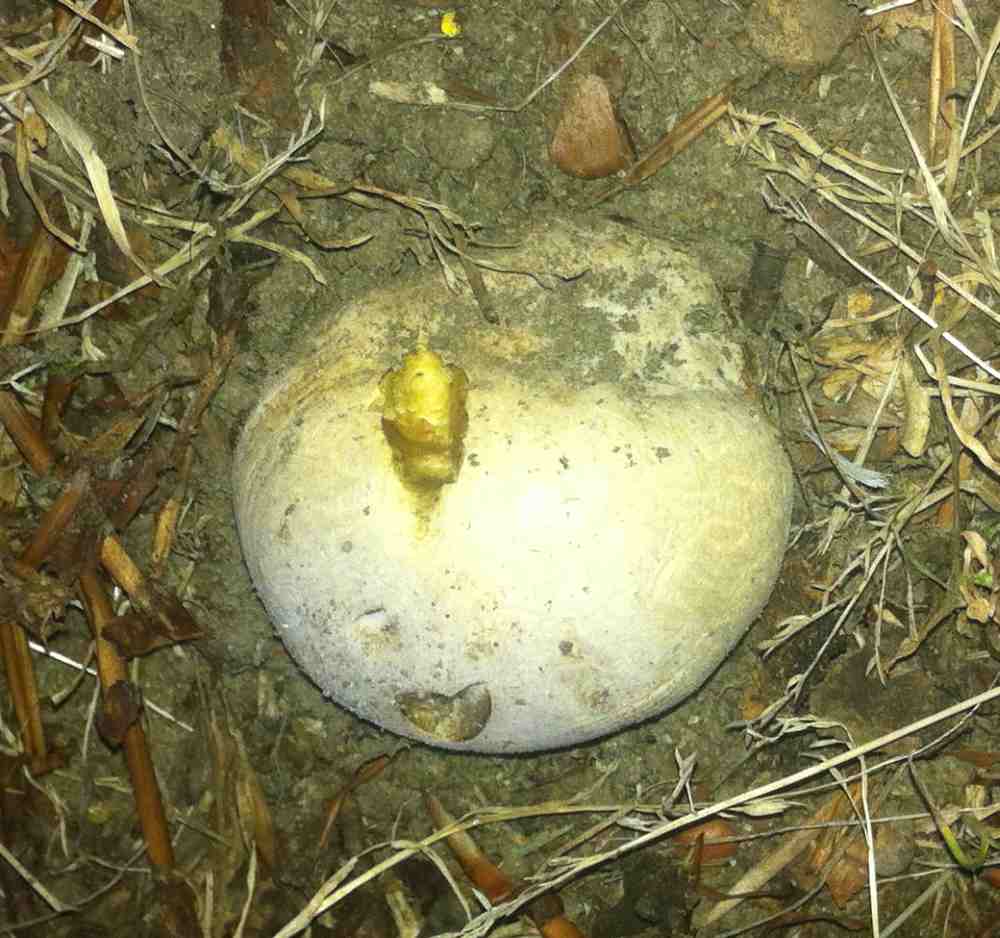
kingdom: Fungi
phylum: Basidiomycota
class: Agaricomycetes
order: Boletales
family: Boletaceae
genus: Caloboletus
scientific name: Caloboletus radicans
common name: rod-rørhat
